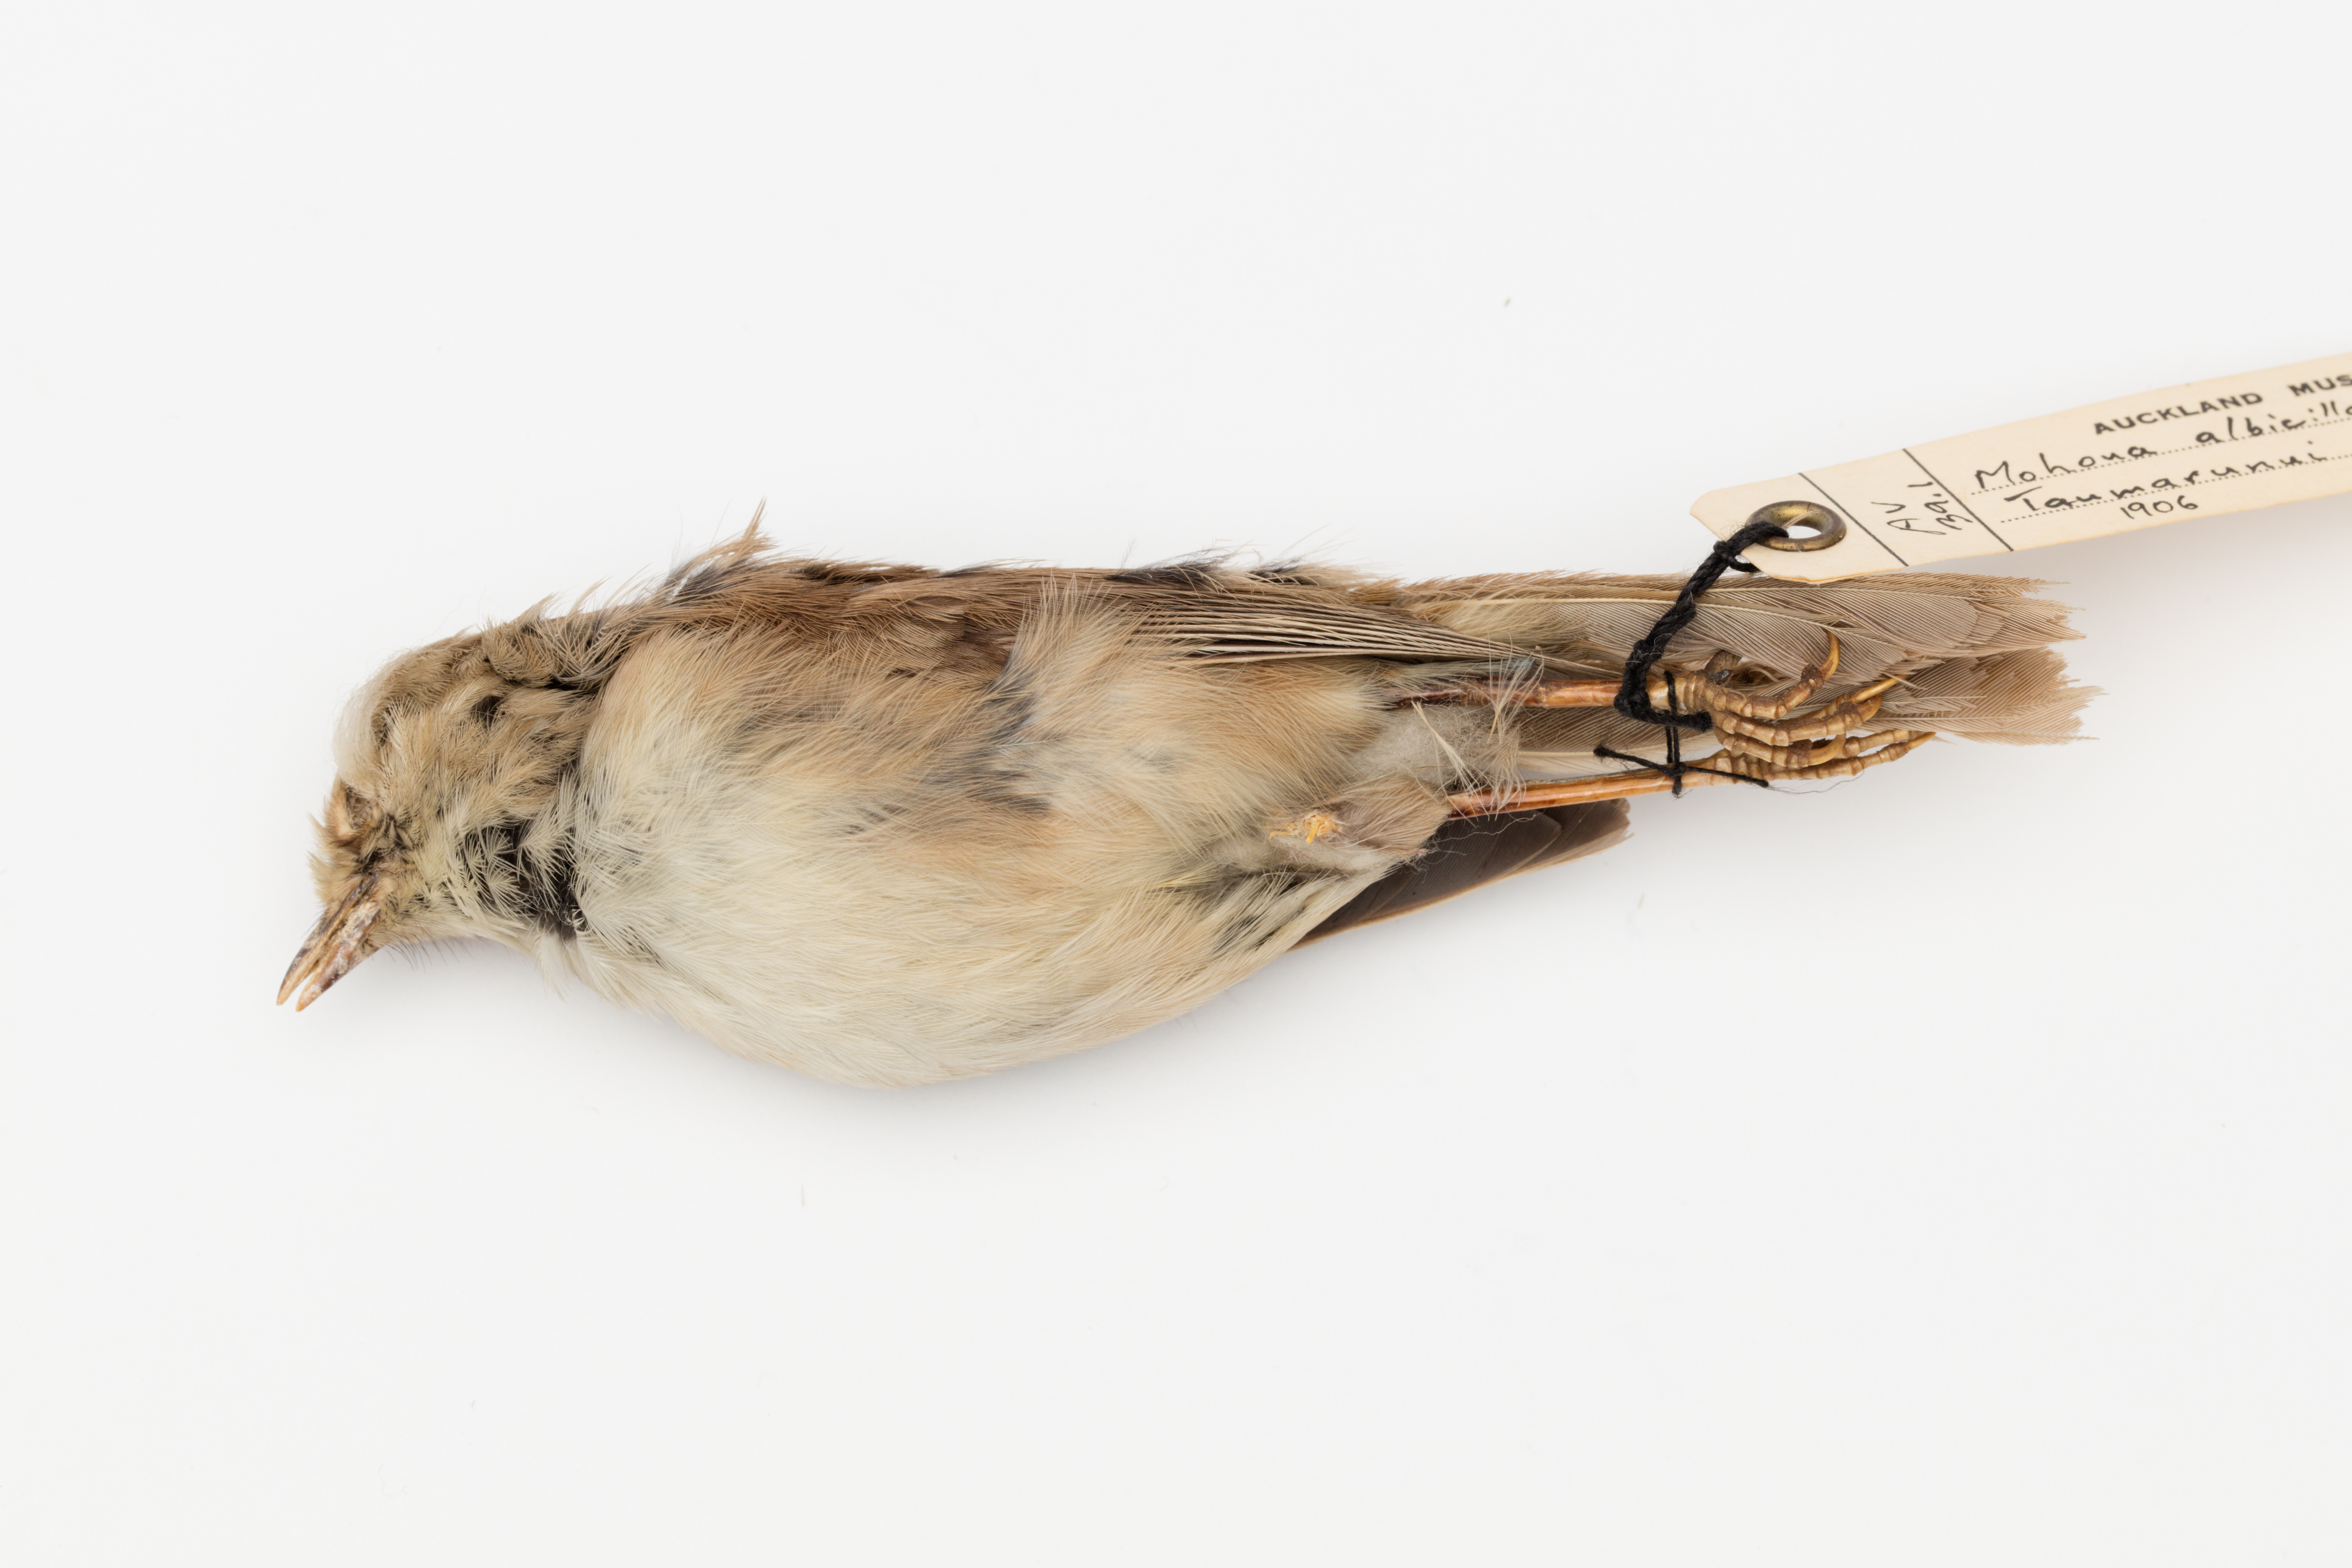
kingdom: Animalia
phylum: Chordata
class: Aves
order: Passeriformes
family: Acanthizidae
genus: Mohoua
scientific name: Mohoua albicilla
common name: Whitehead
